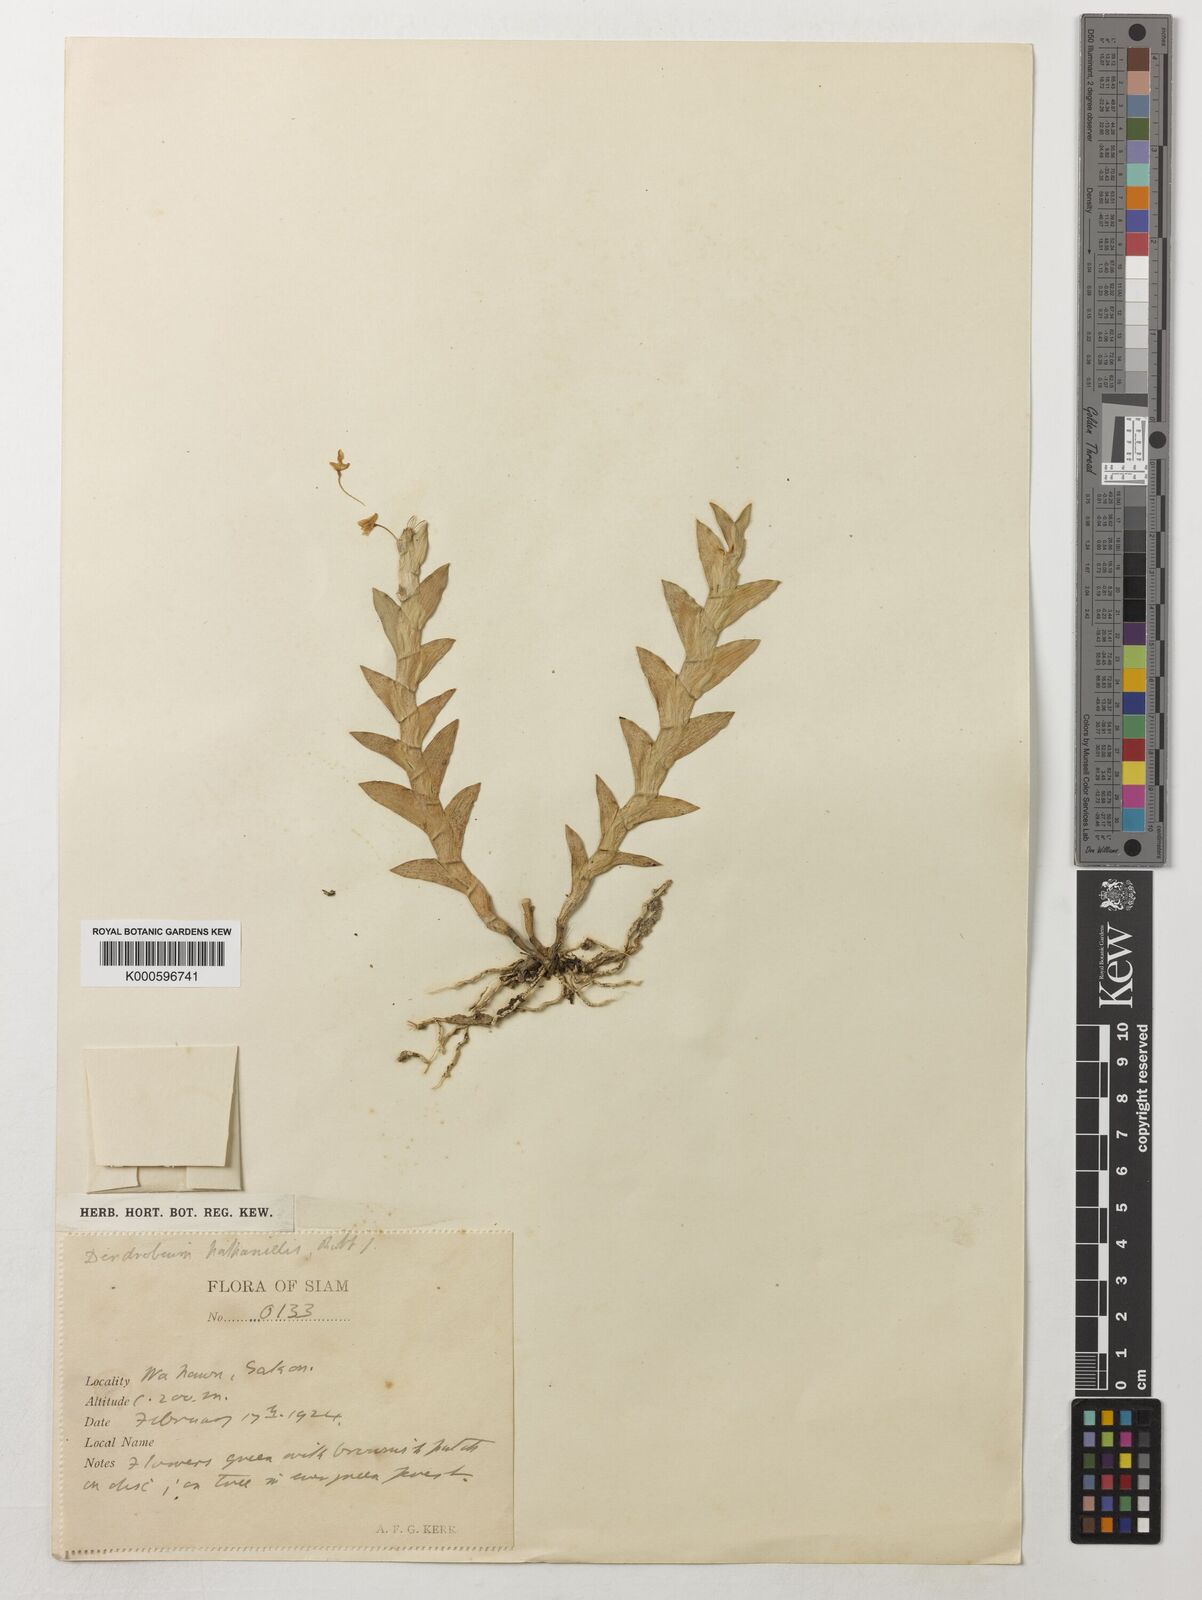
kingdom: Plantae
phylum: Tracheophyta
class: Liliopsida
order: Asparagales
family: Orchidaceae
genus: Dendrobium
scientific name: Dendrobium nathanielis
